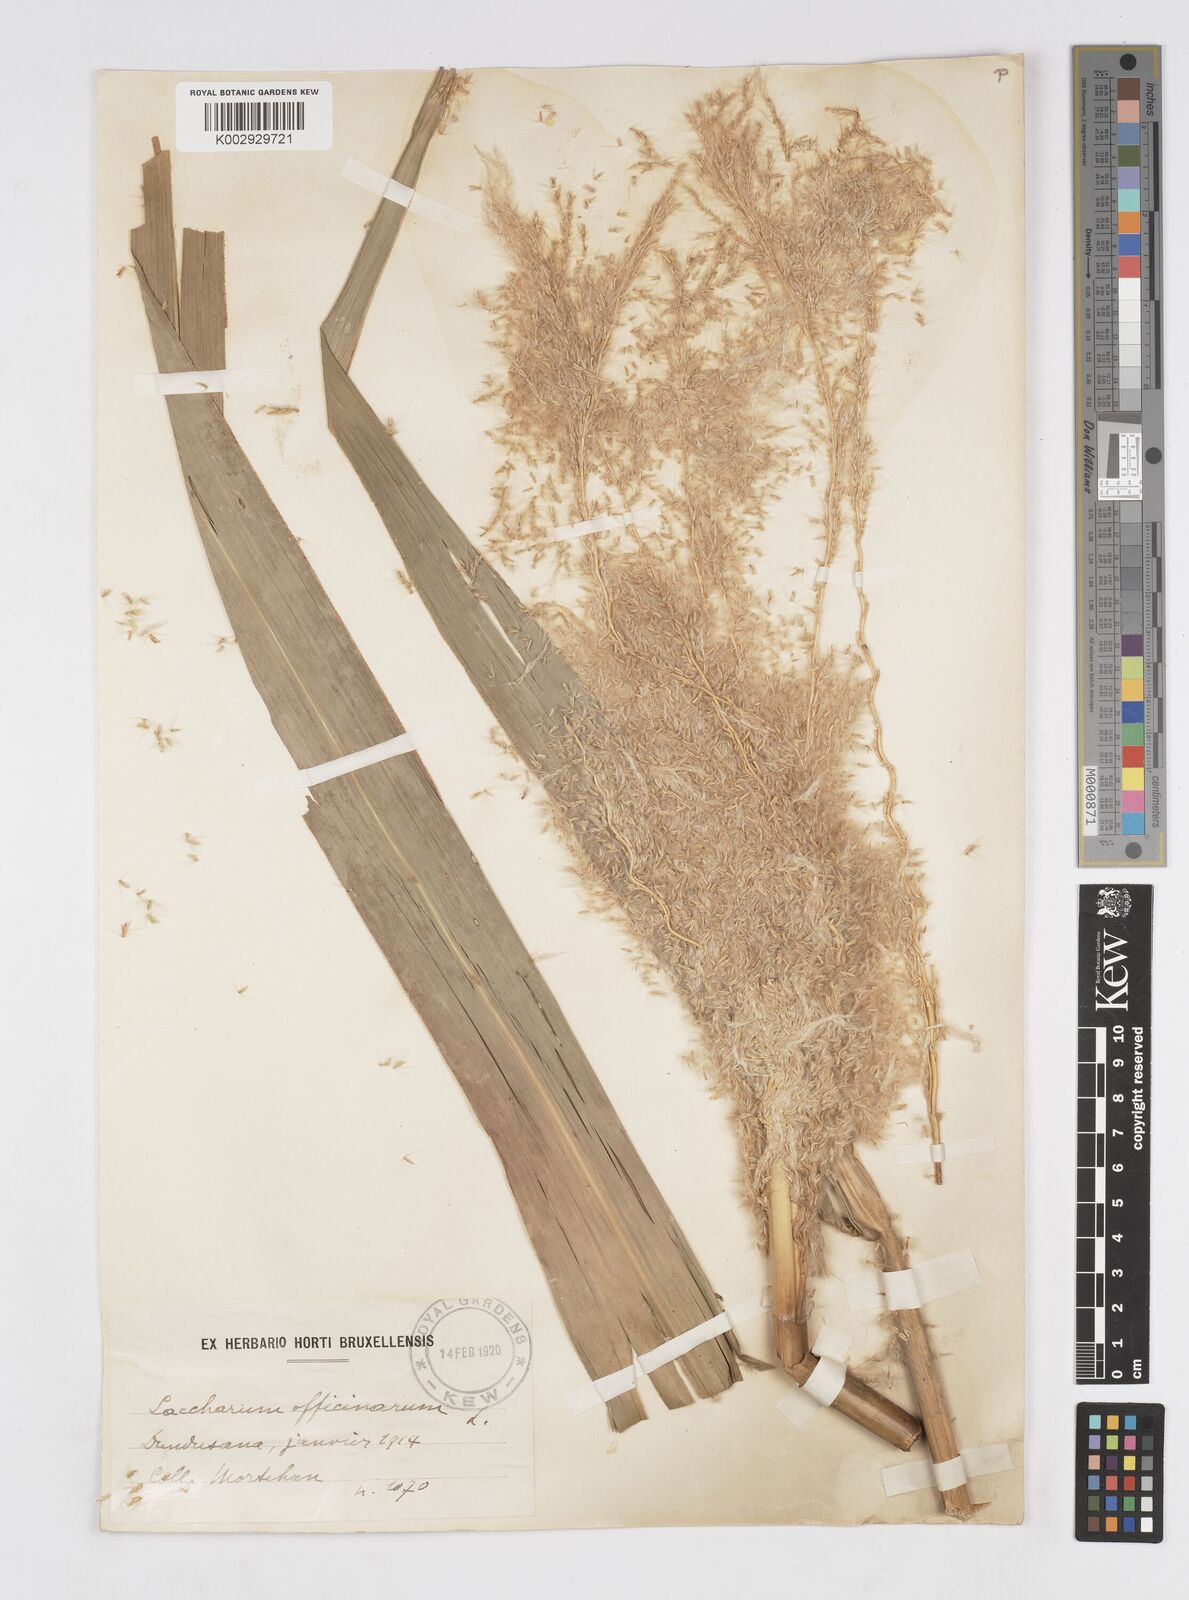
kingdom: Plantae
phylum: Tracheophyta
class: Liliopsida
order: Poales
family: Poaceae
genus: Saccharum
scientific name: Saccharum officinarum
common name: Sugarcane
